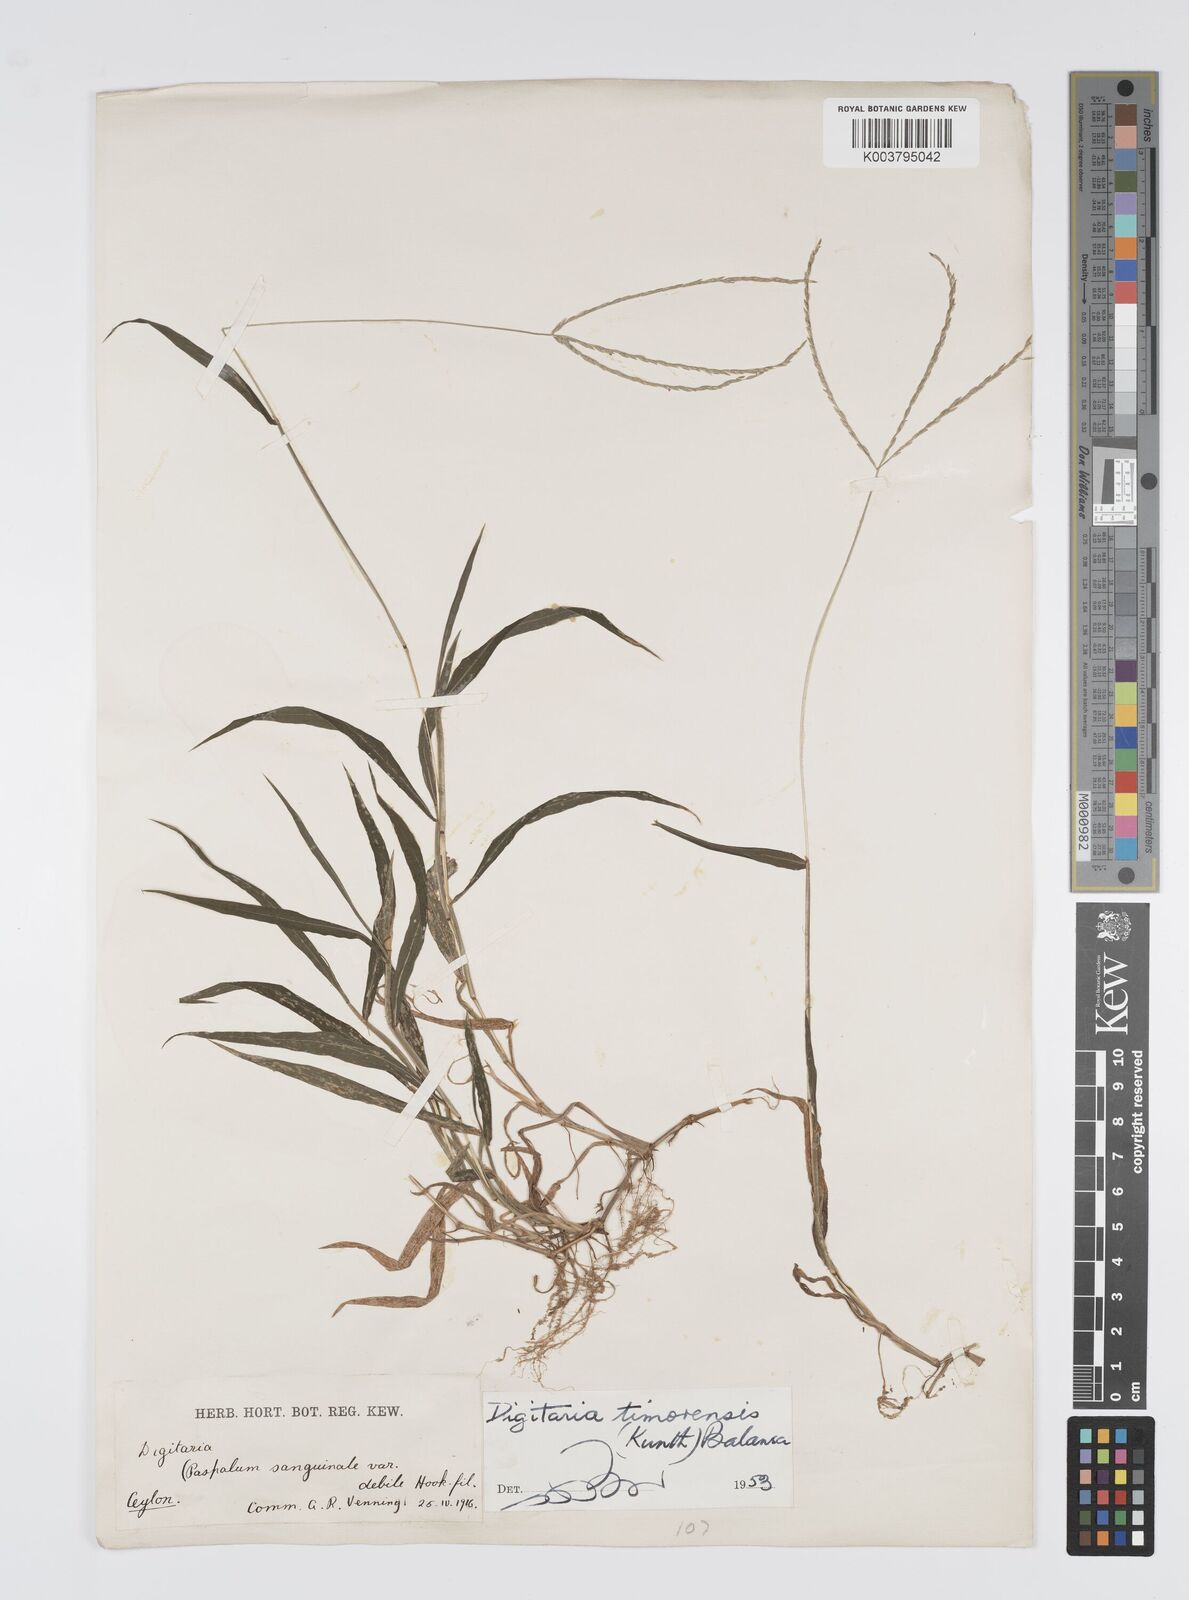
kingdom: Plantae
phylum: Tracheophyta
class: Liliopsida
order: Poales
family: Poaceae
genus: Digitaria
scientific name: Digitaria setigera
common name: East indian crabgrass
